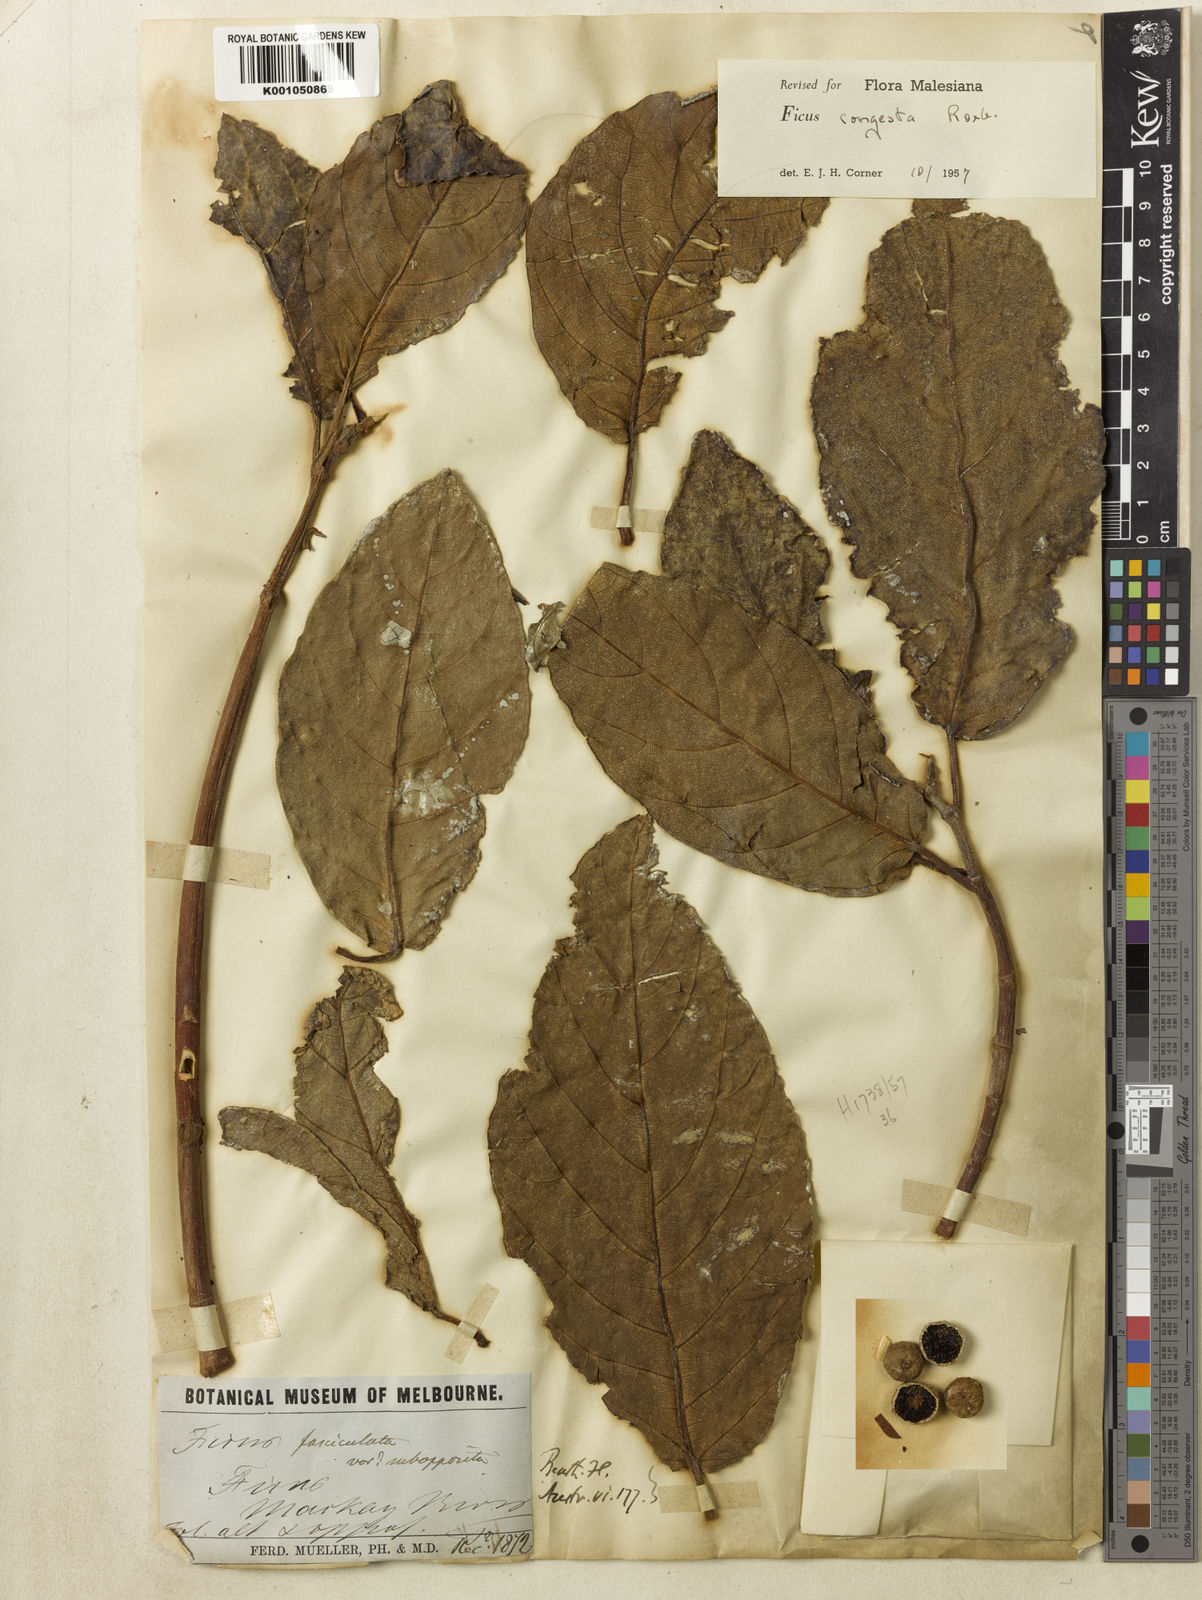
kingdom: Plantae
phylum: Tracheophyta
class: Magnoliopsida
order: Rosales
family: Moraceae
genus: Ficus
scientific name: Ficus congesta
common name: Cluster fig
